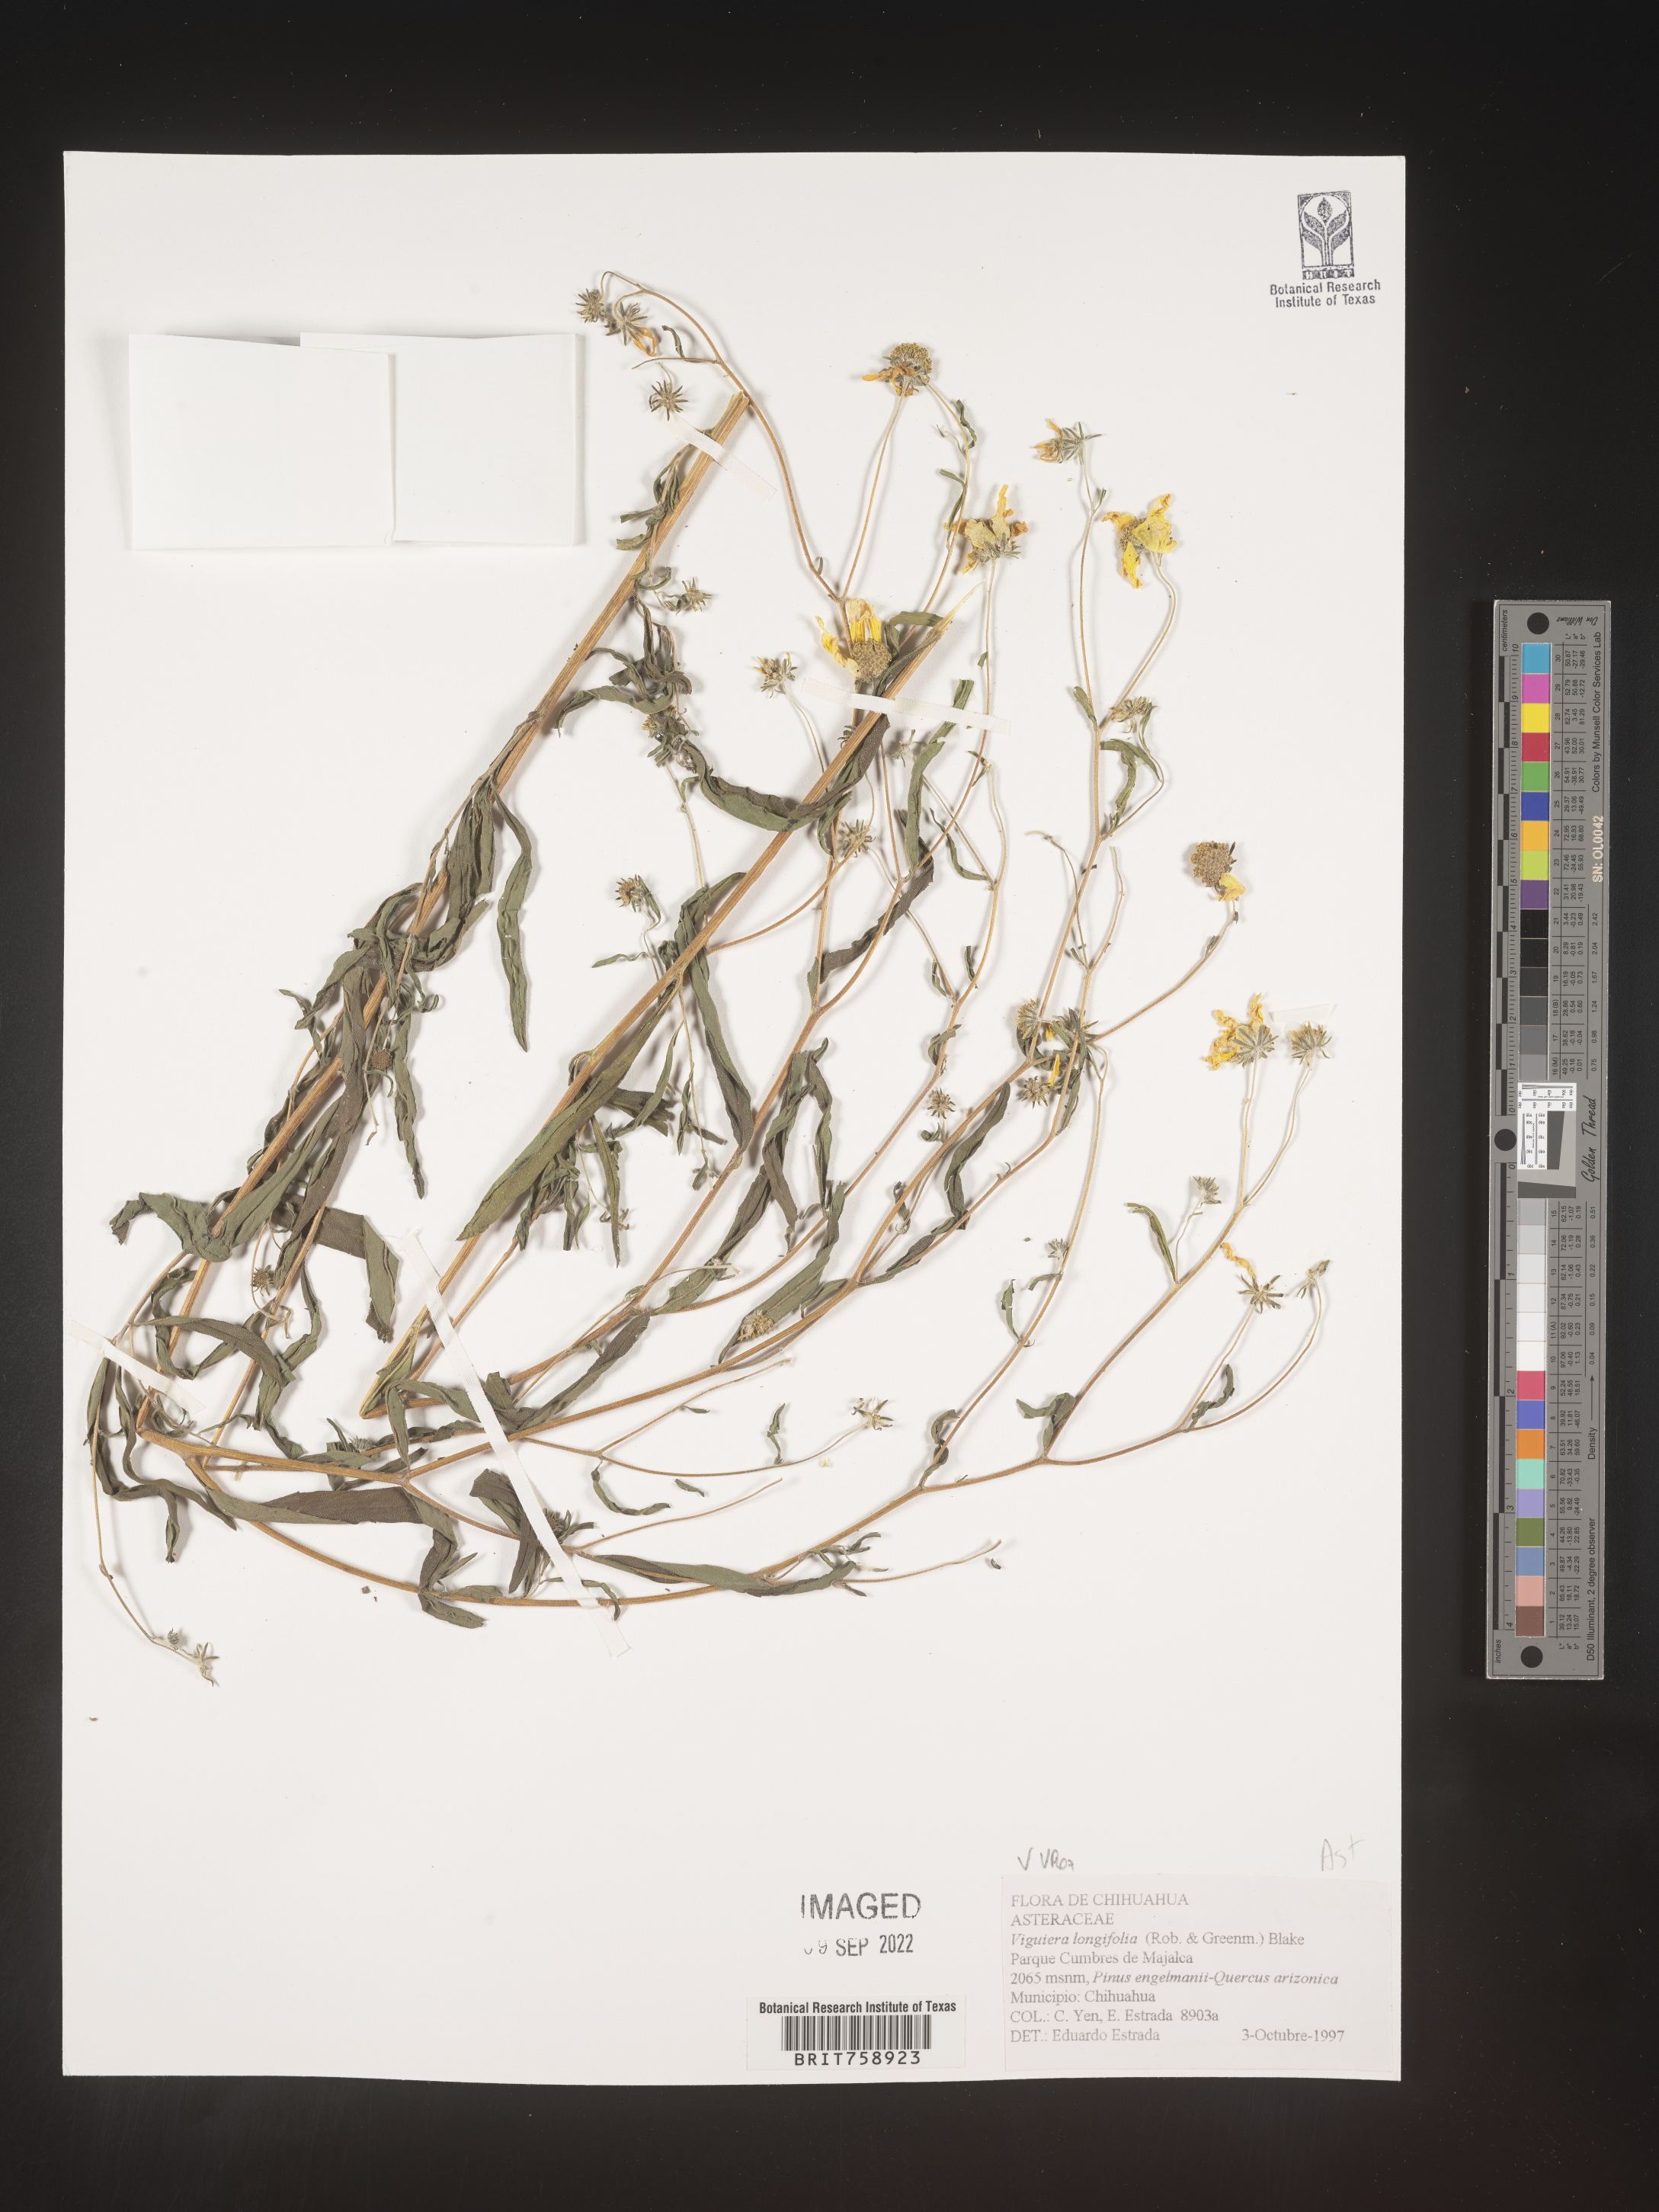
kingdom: Plantae
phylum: Tracheophyta
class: Magnoliopsida
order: Asterales
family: Asteraceae
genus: Viguiera
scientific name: Viguiera
